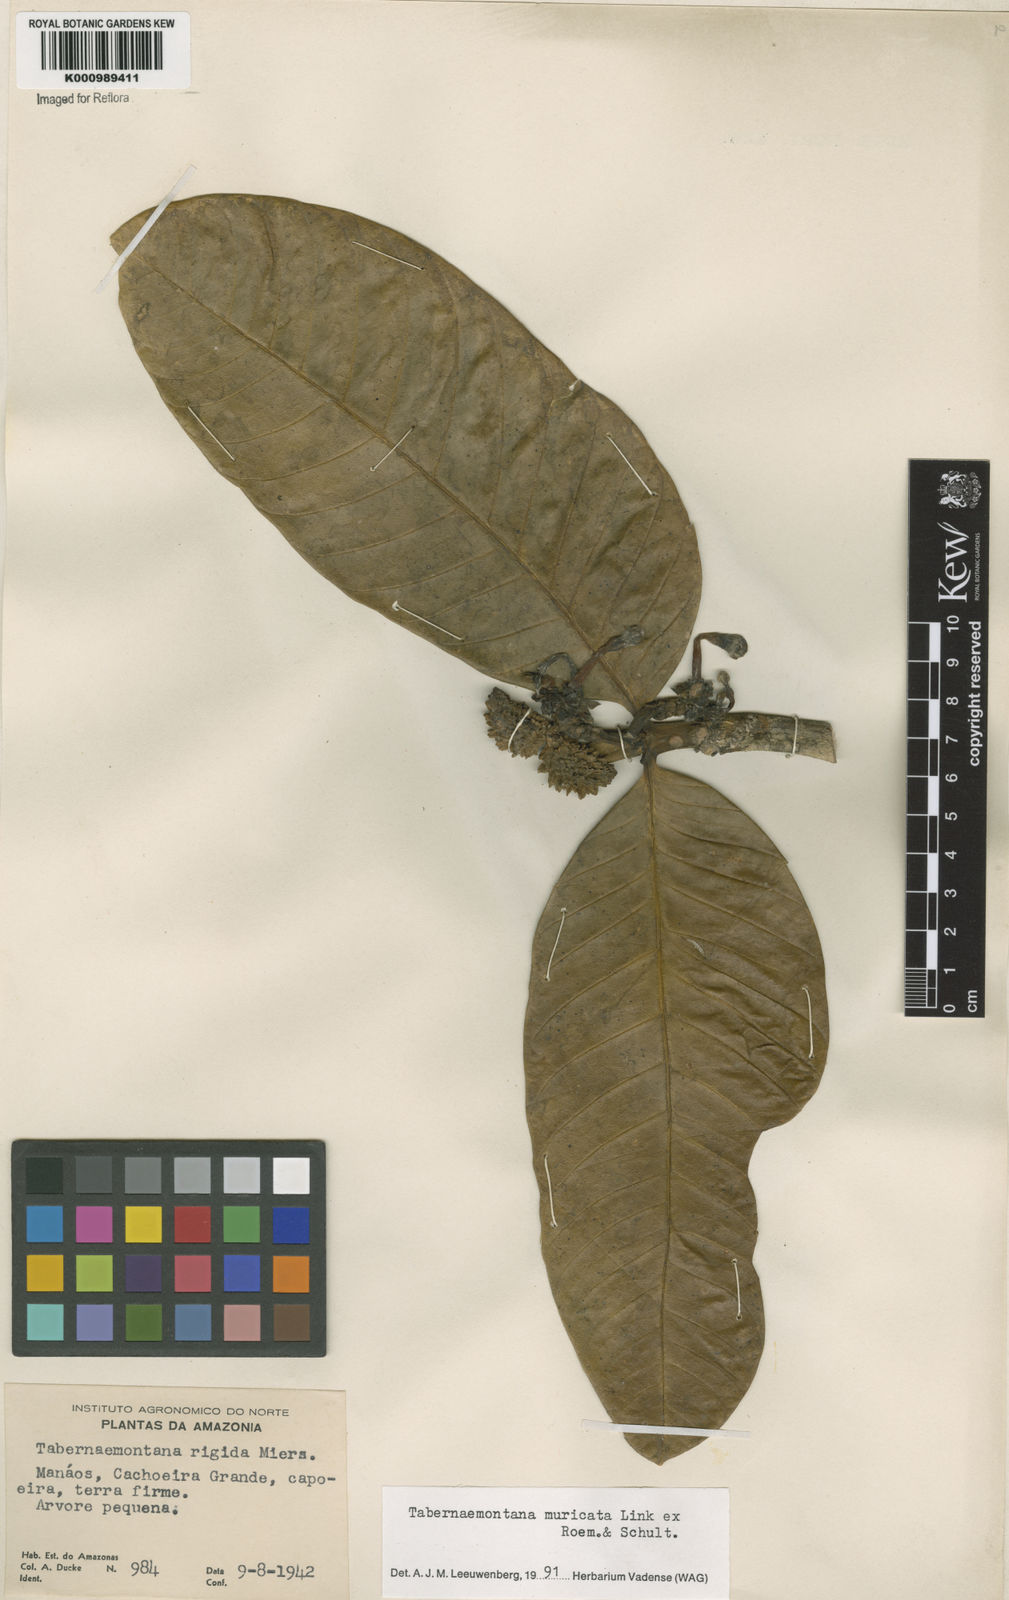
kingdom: Plantae
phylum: Tracheophyta
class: Magnoliopsida
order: Gentianales
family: Apocynaceae
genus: Tabernaemontana
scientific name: Tabernaemontana muricata
